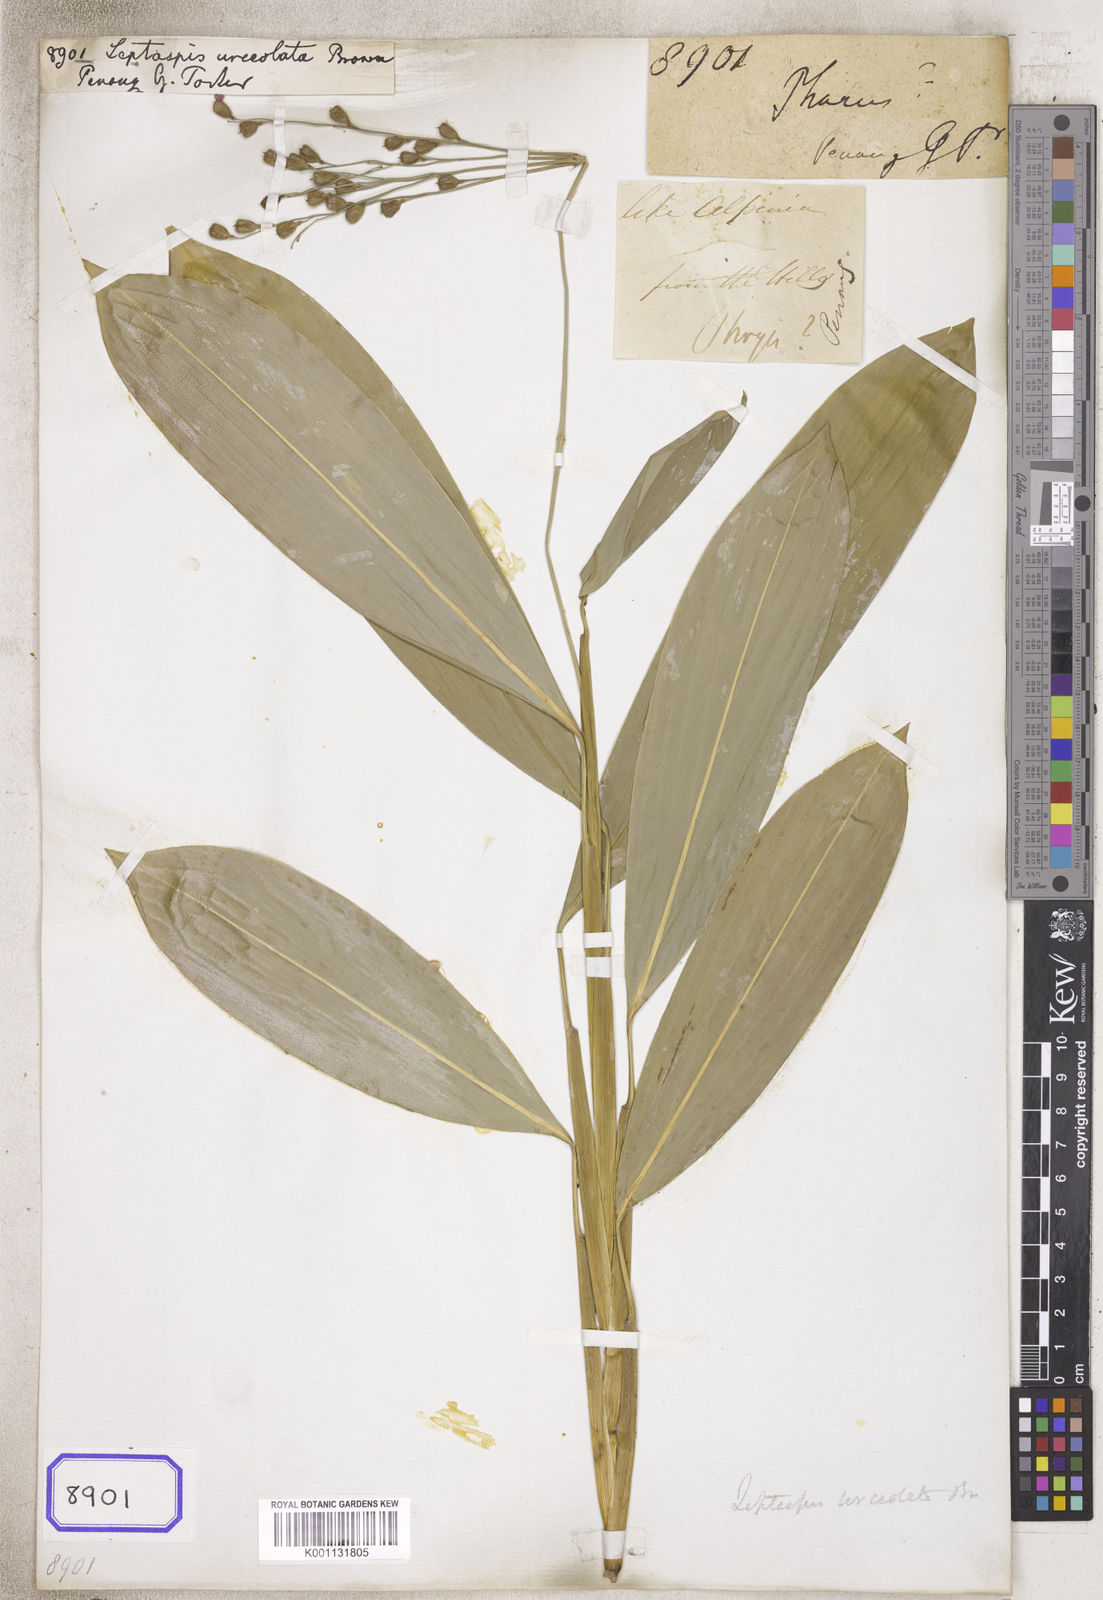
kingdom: Plantae
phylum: Tracheophyta
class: Liliopsida
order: Poales
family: Poaceae
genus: Scrotochloa
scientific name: Scrotochloa urceolata
